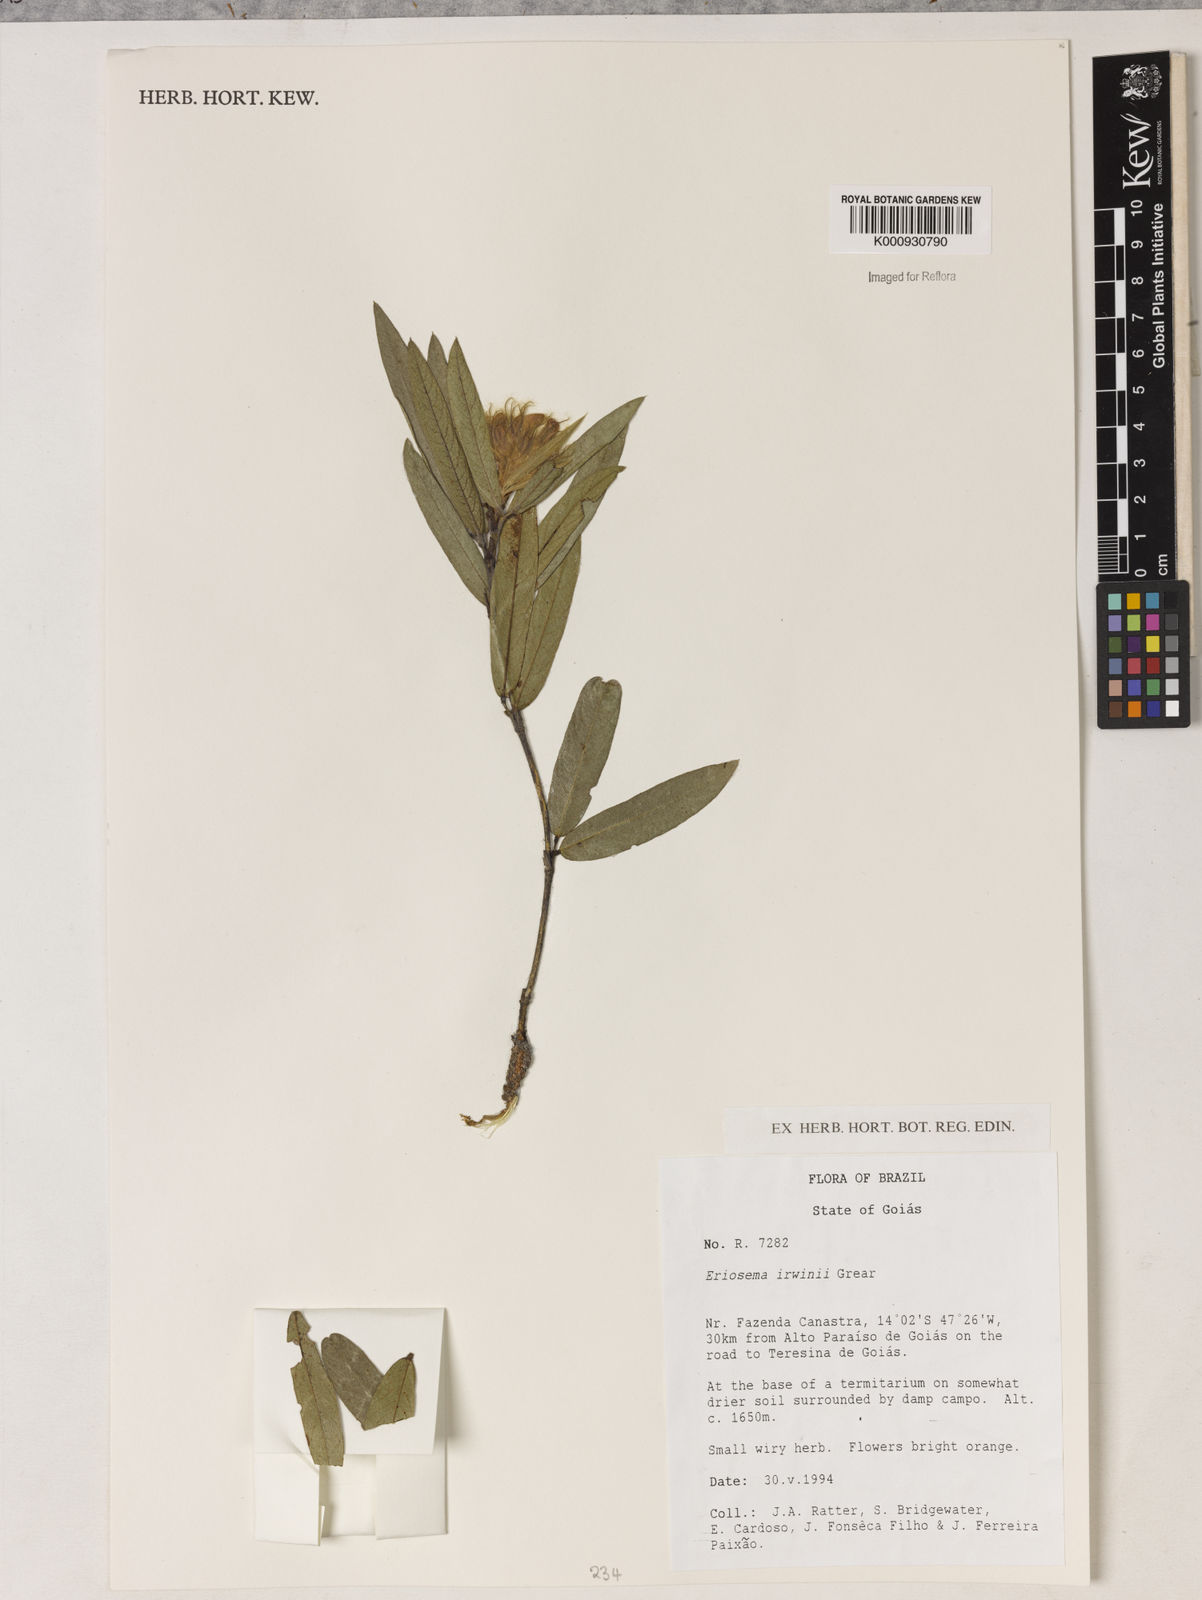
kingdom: Plantae
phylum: Tracheophyta
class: Magnoliopsida
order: Fabales
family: Fabaceae
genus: Eriosema
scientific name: Eriosema irwinii
